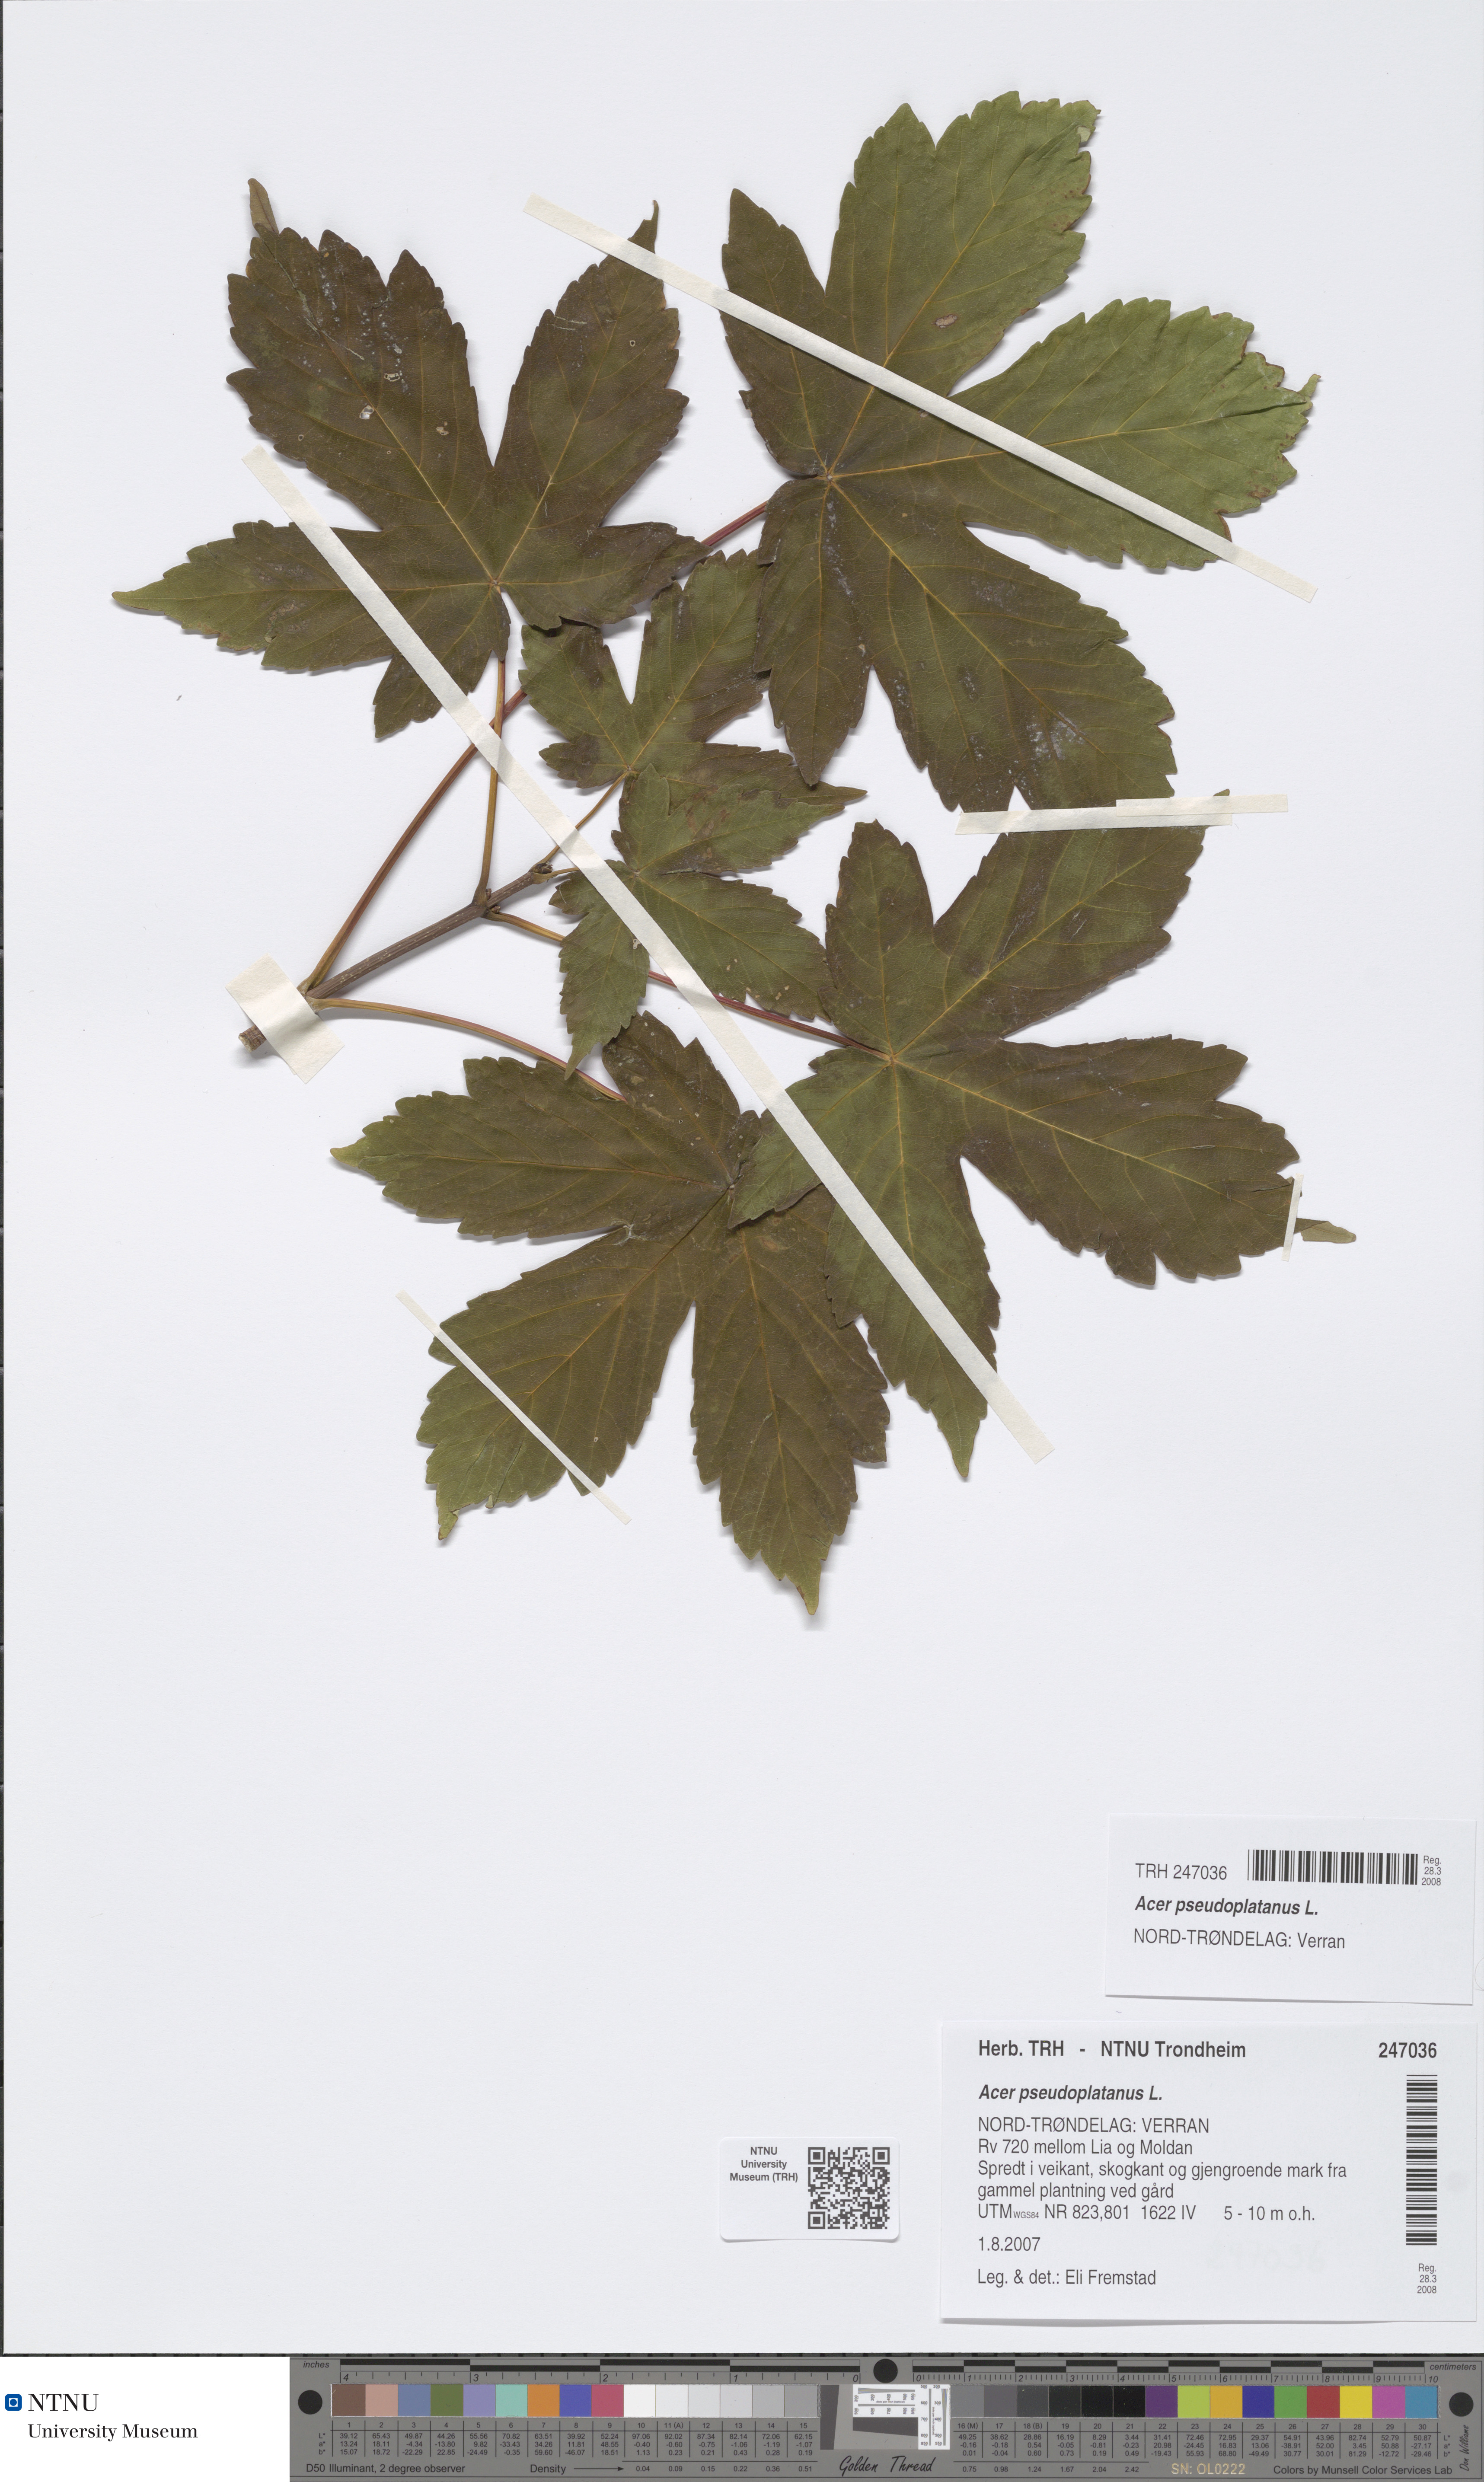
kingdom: Plantae
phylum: Tracheophyta
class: Magnoliopsida
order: Sapindales
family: Sapindaceae
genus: Acer
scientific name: Acer pseudoplatanus
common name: Sycamore
